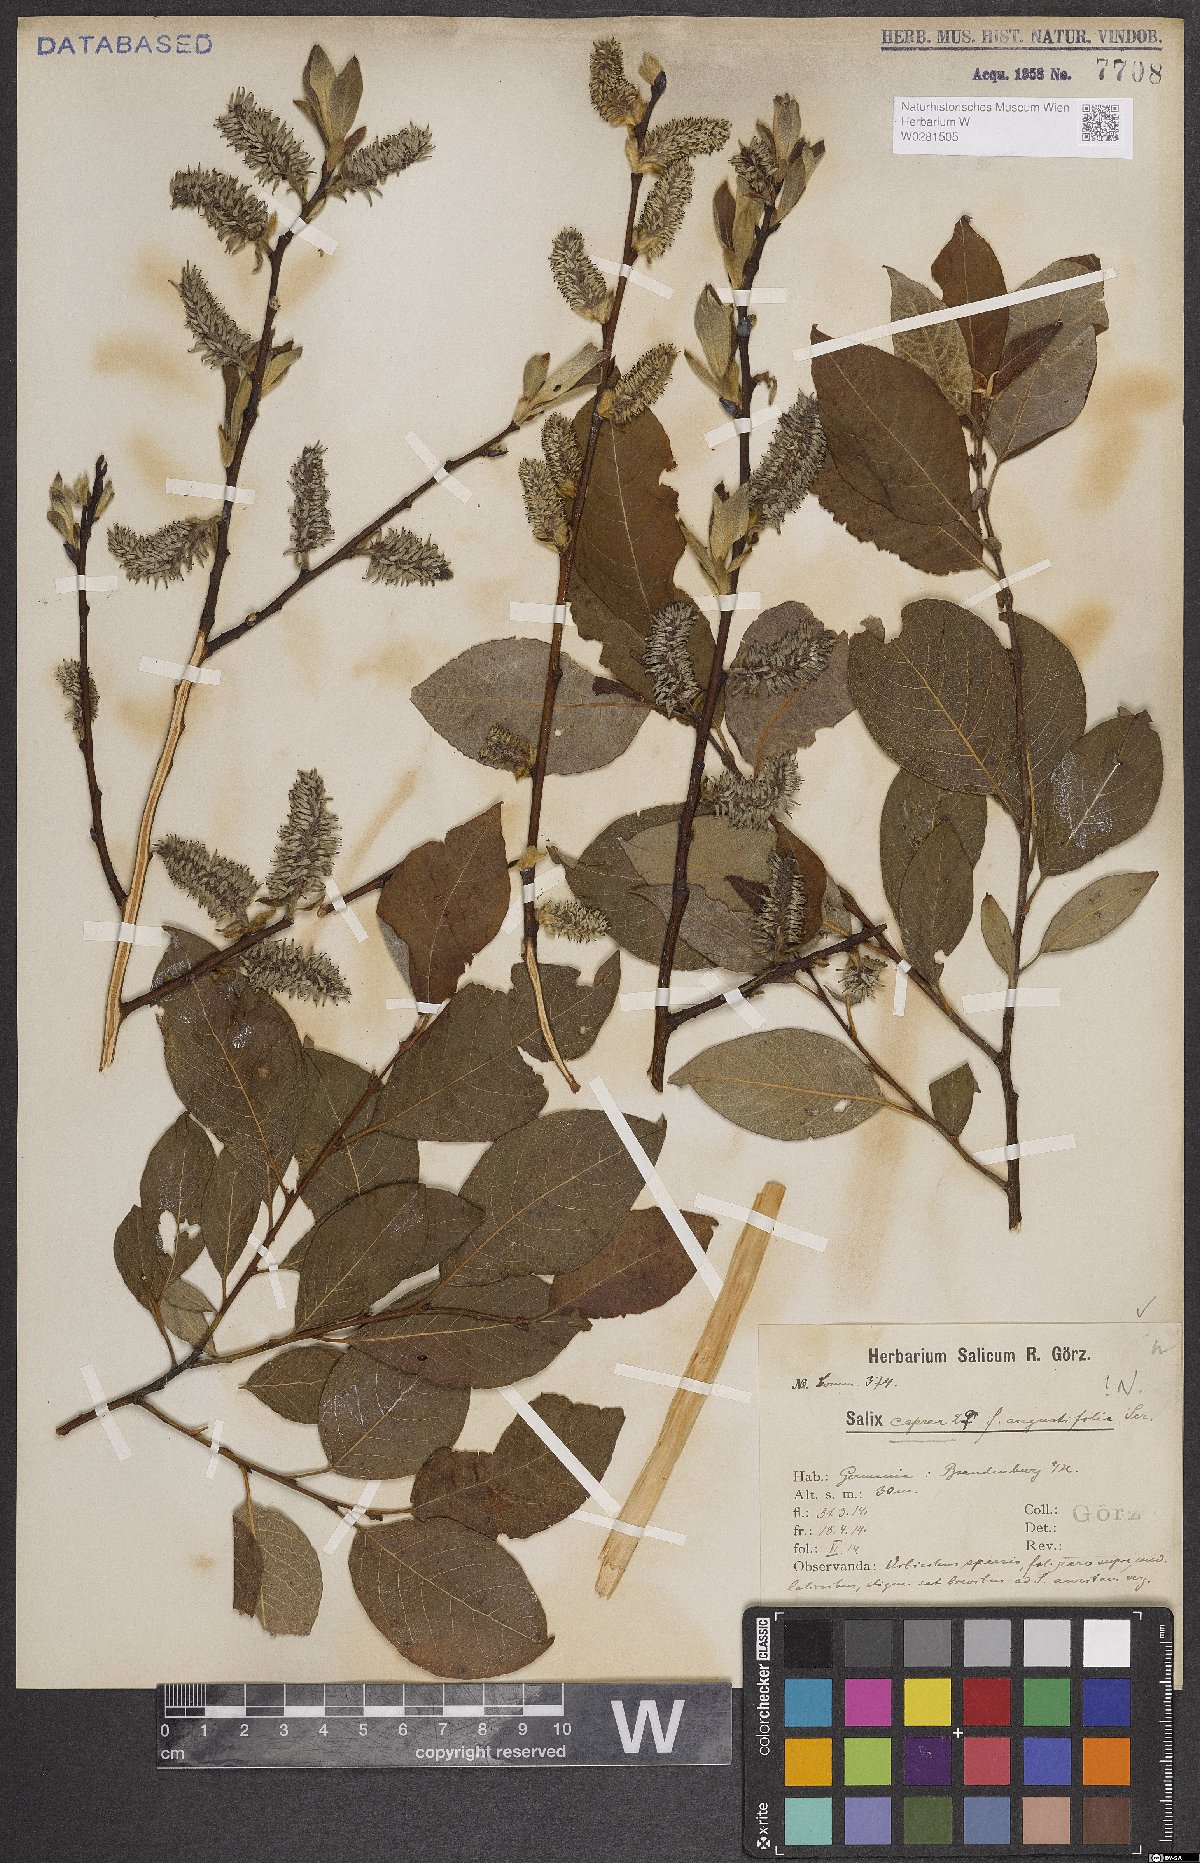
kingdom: Plantae
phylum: Tracheophyta
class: Magnoliopsida
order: Malpighiales
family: Salicaceae
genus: Salix
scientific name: Salix caprea
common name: Goat willow
